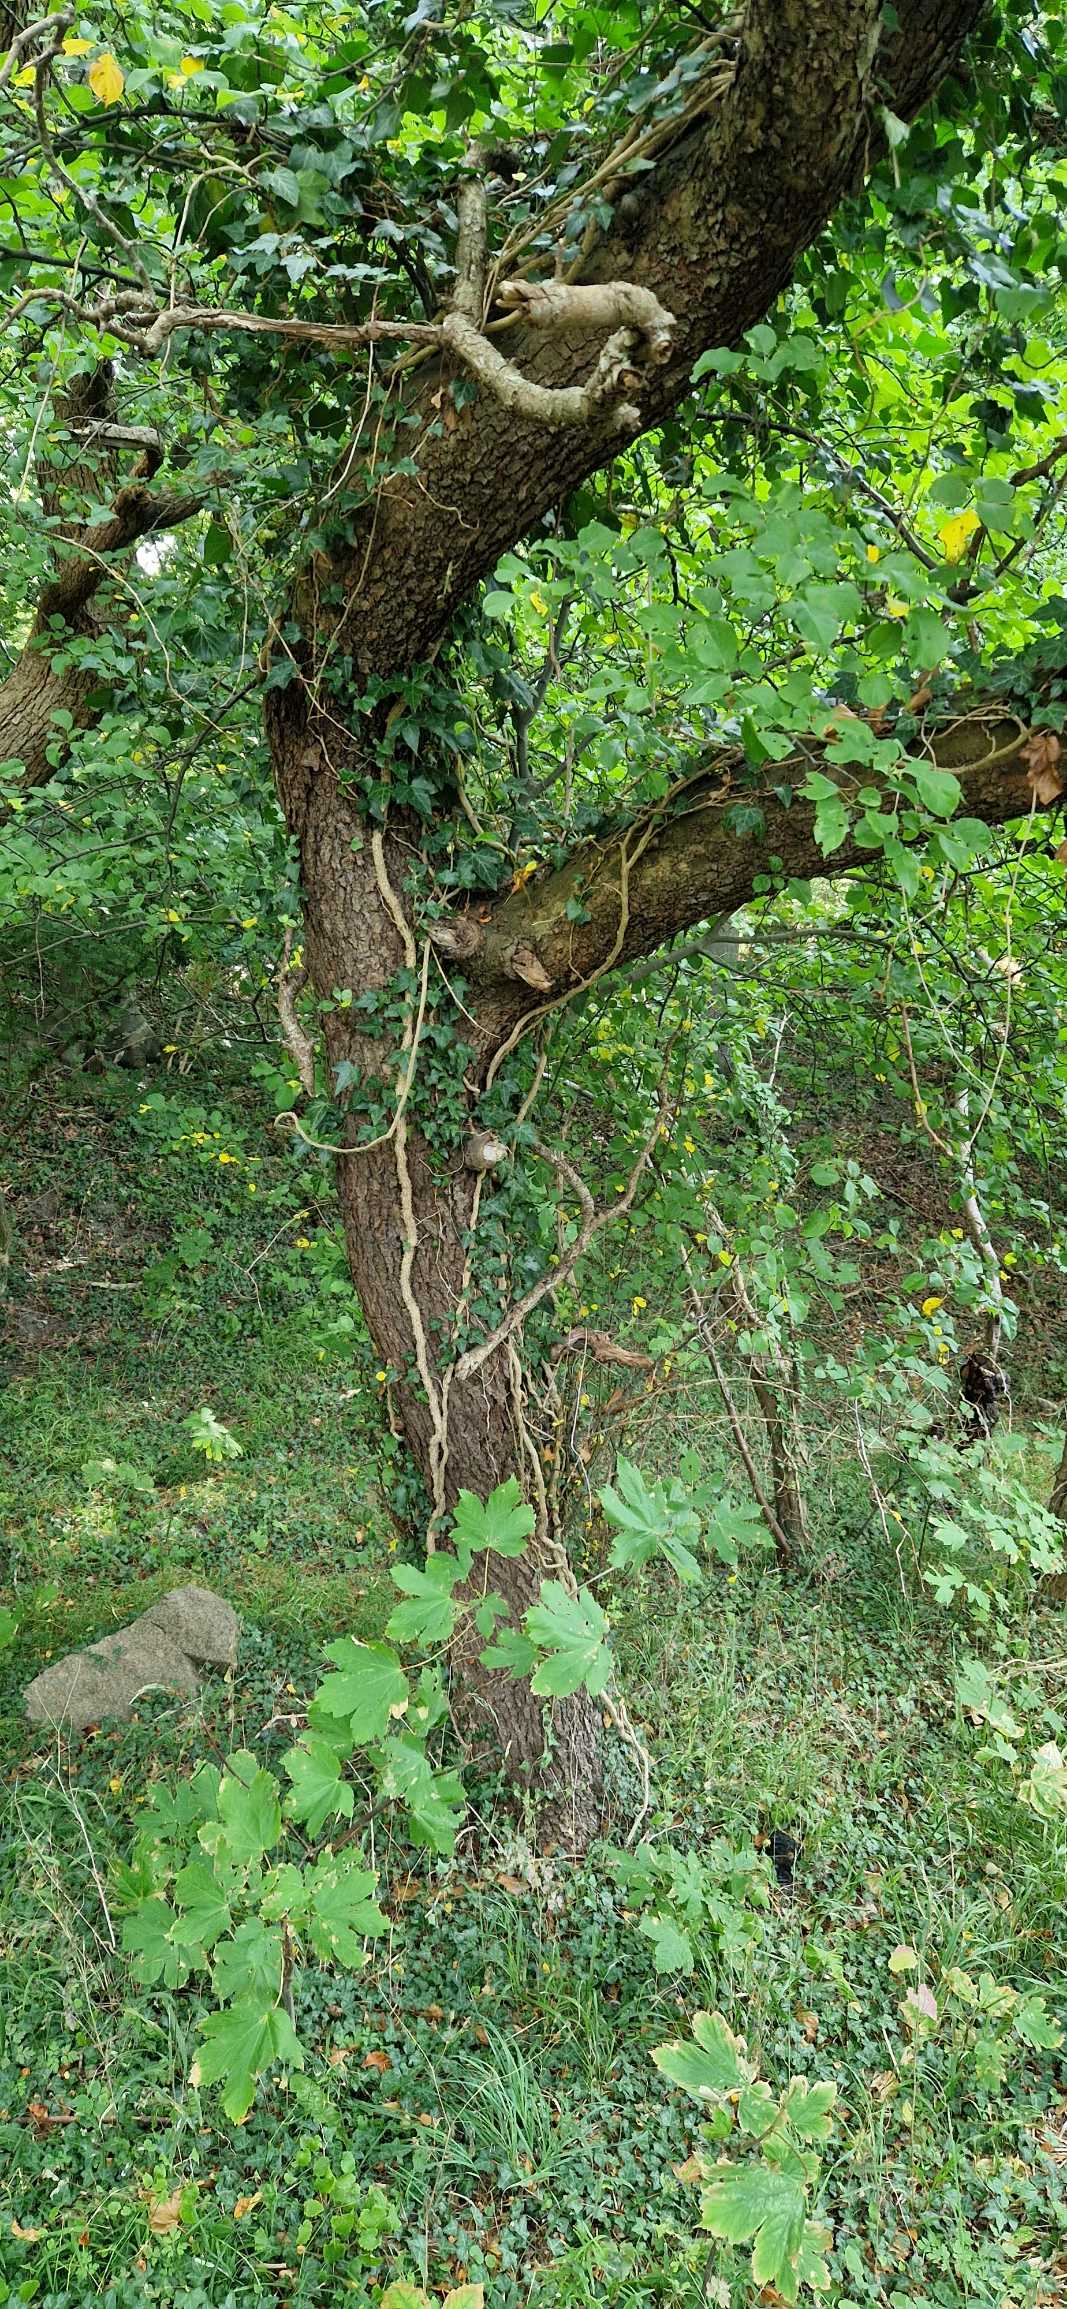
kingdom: Plantae
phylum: Tracheophyta
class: Magnoliopsida
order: Rosales
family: Rosaceae
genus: Malus
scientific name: Malus sylvestris
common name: Skov-æble
